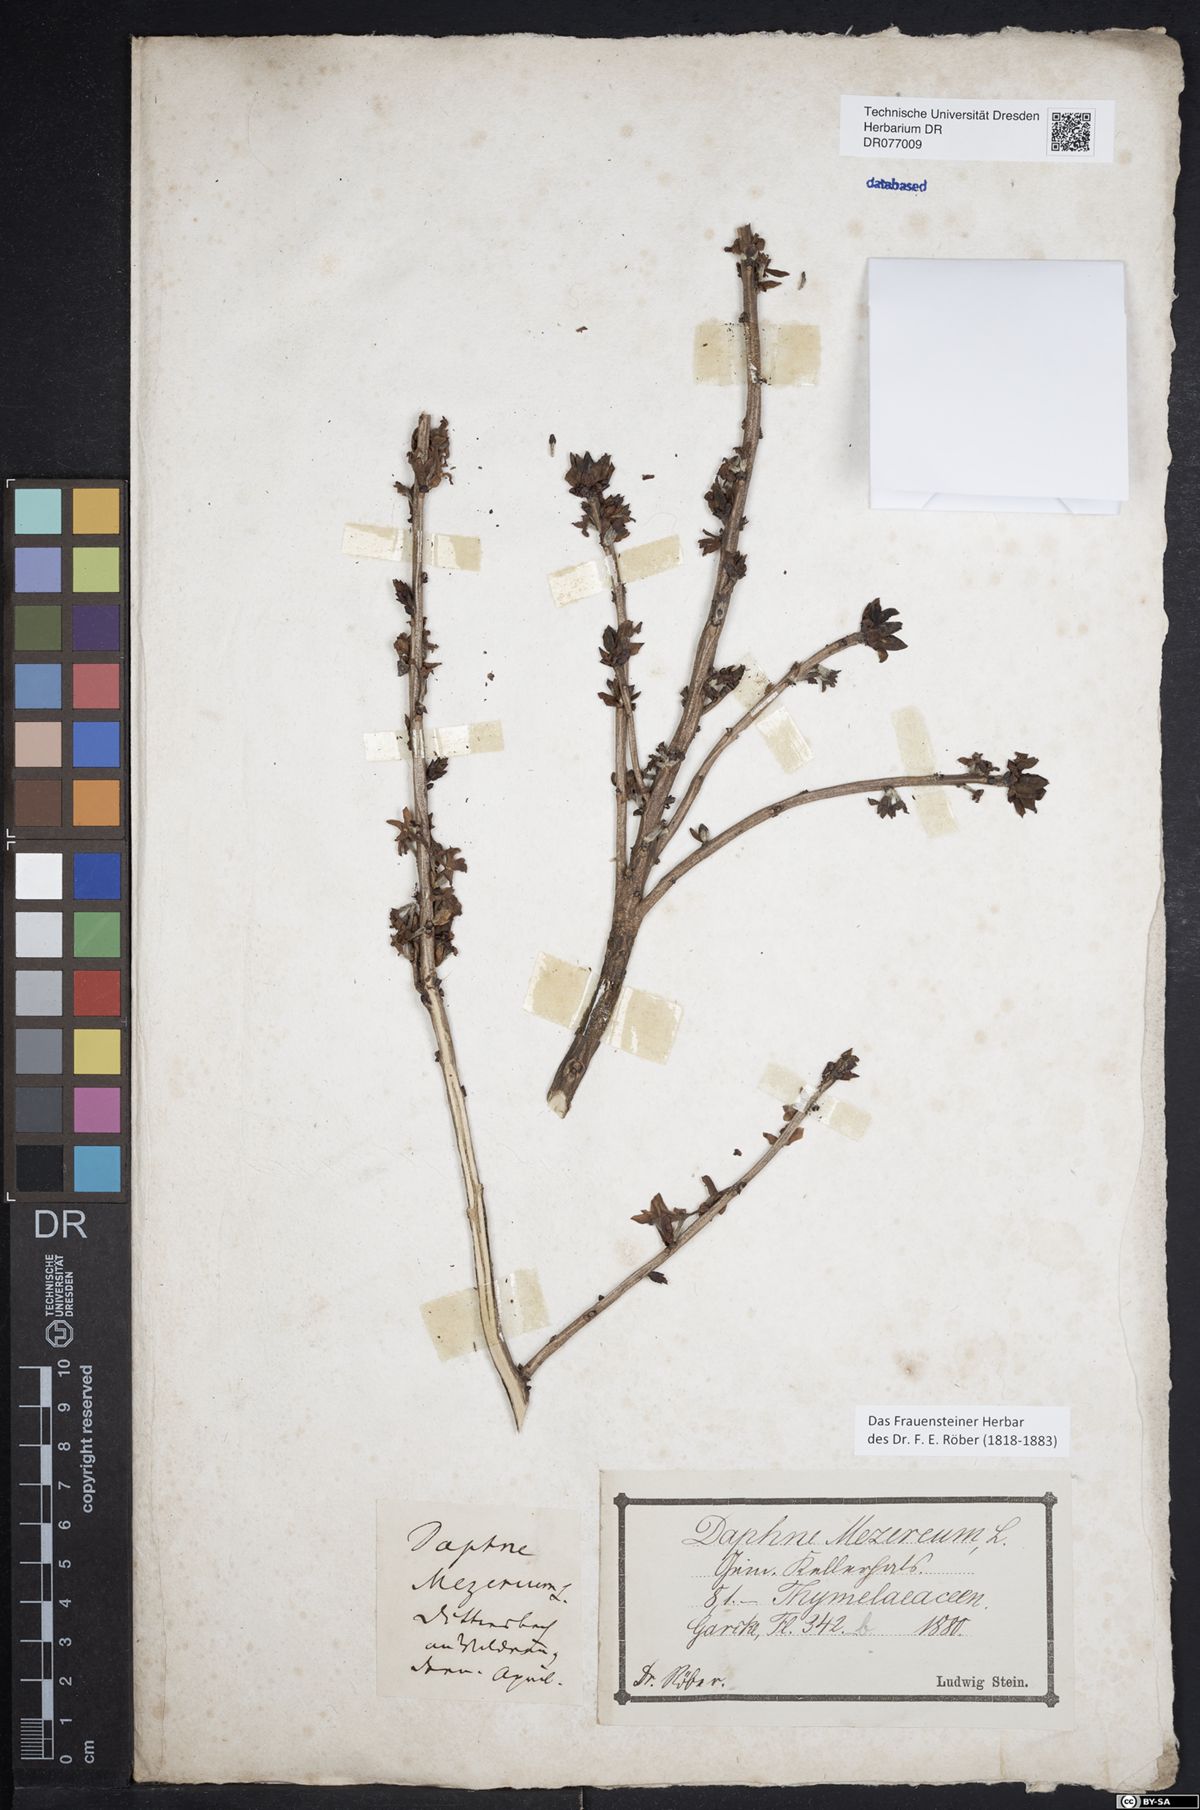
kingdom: Plantae
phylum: Tracheophyta
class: Magnoliopsida
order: Malvales
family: Thymelaeaceae
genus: Daphne
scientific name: Daphne mezereum
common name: Mezereon
